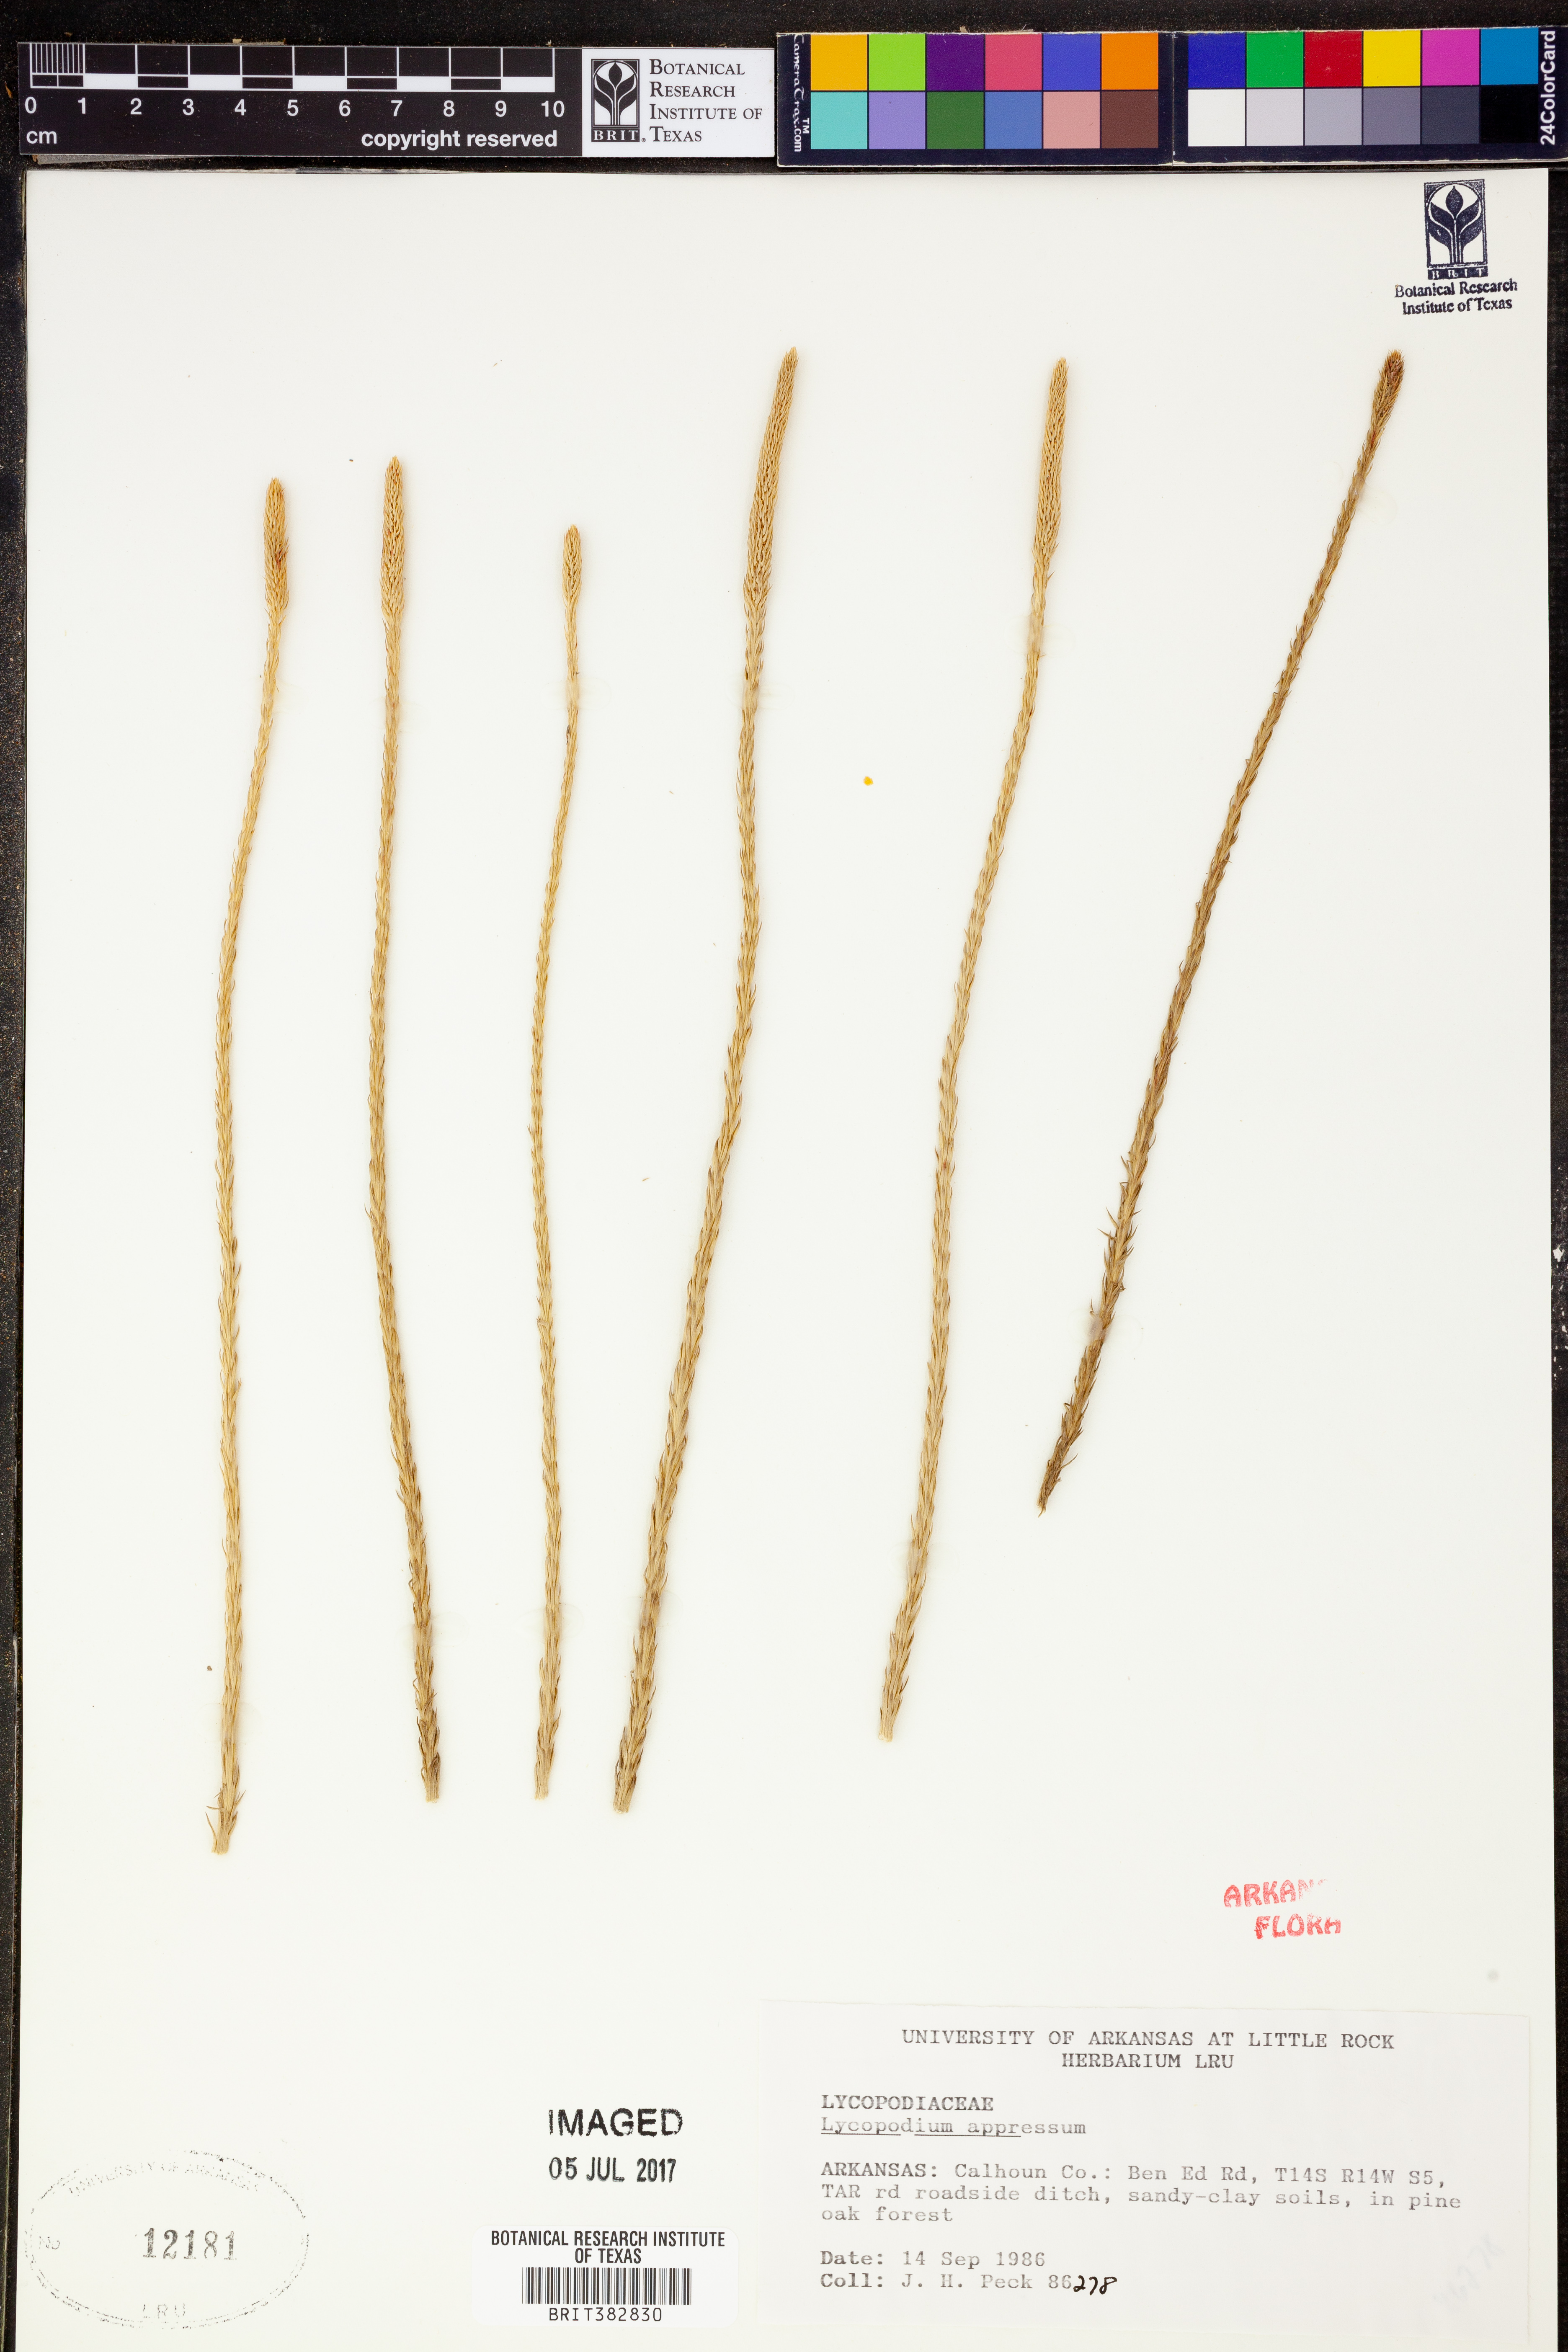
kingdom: Plantae
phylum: Tracheophyta
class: Lycopodiopsida
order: Lycopodiales
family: Lycopodiaceae
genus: Lycopodiella
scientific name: Lycopodiella appressa
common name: Appressed bog clubmoss
